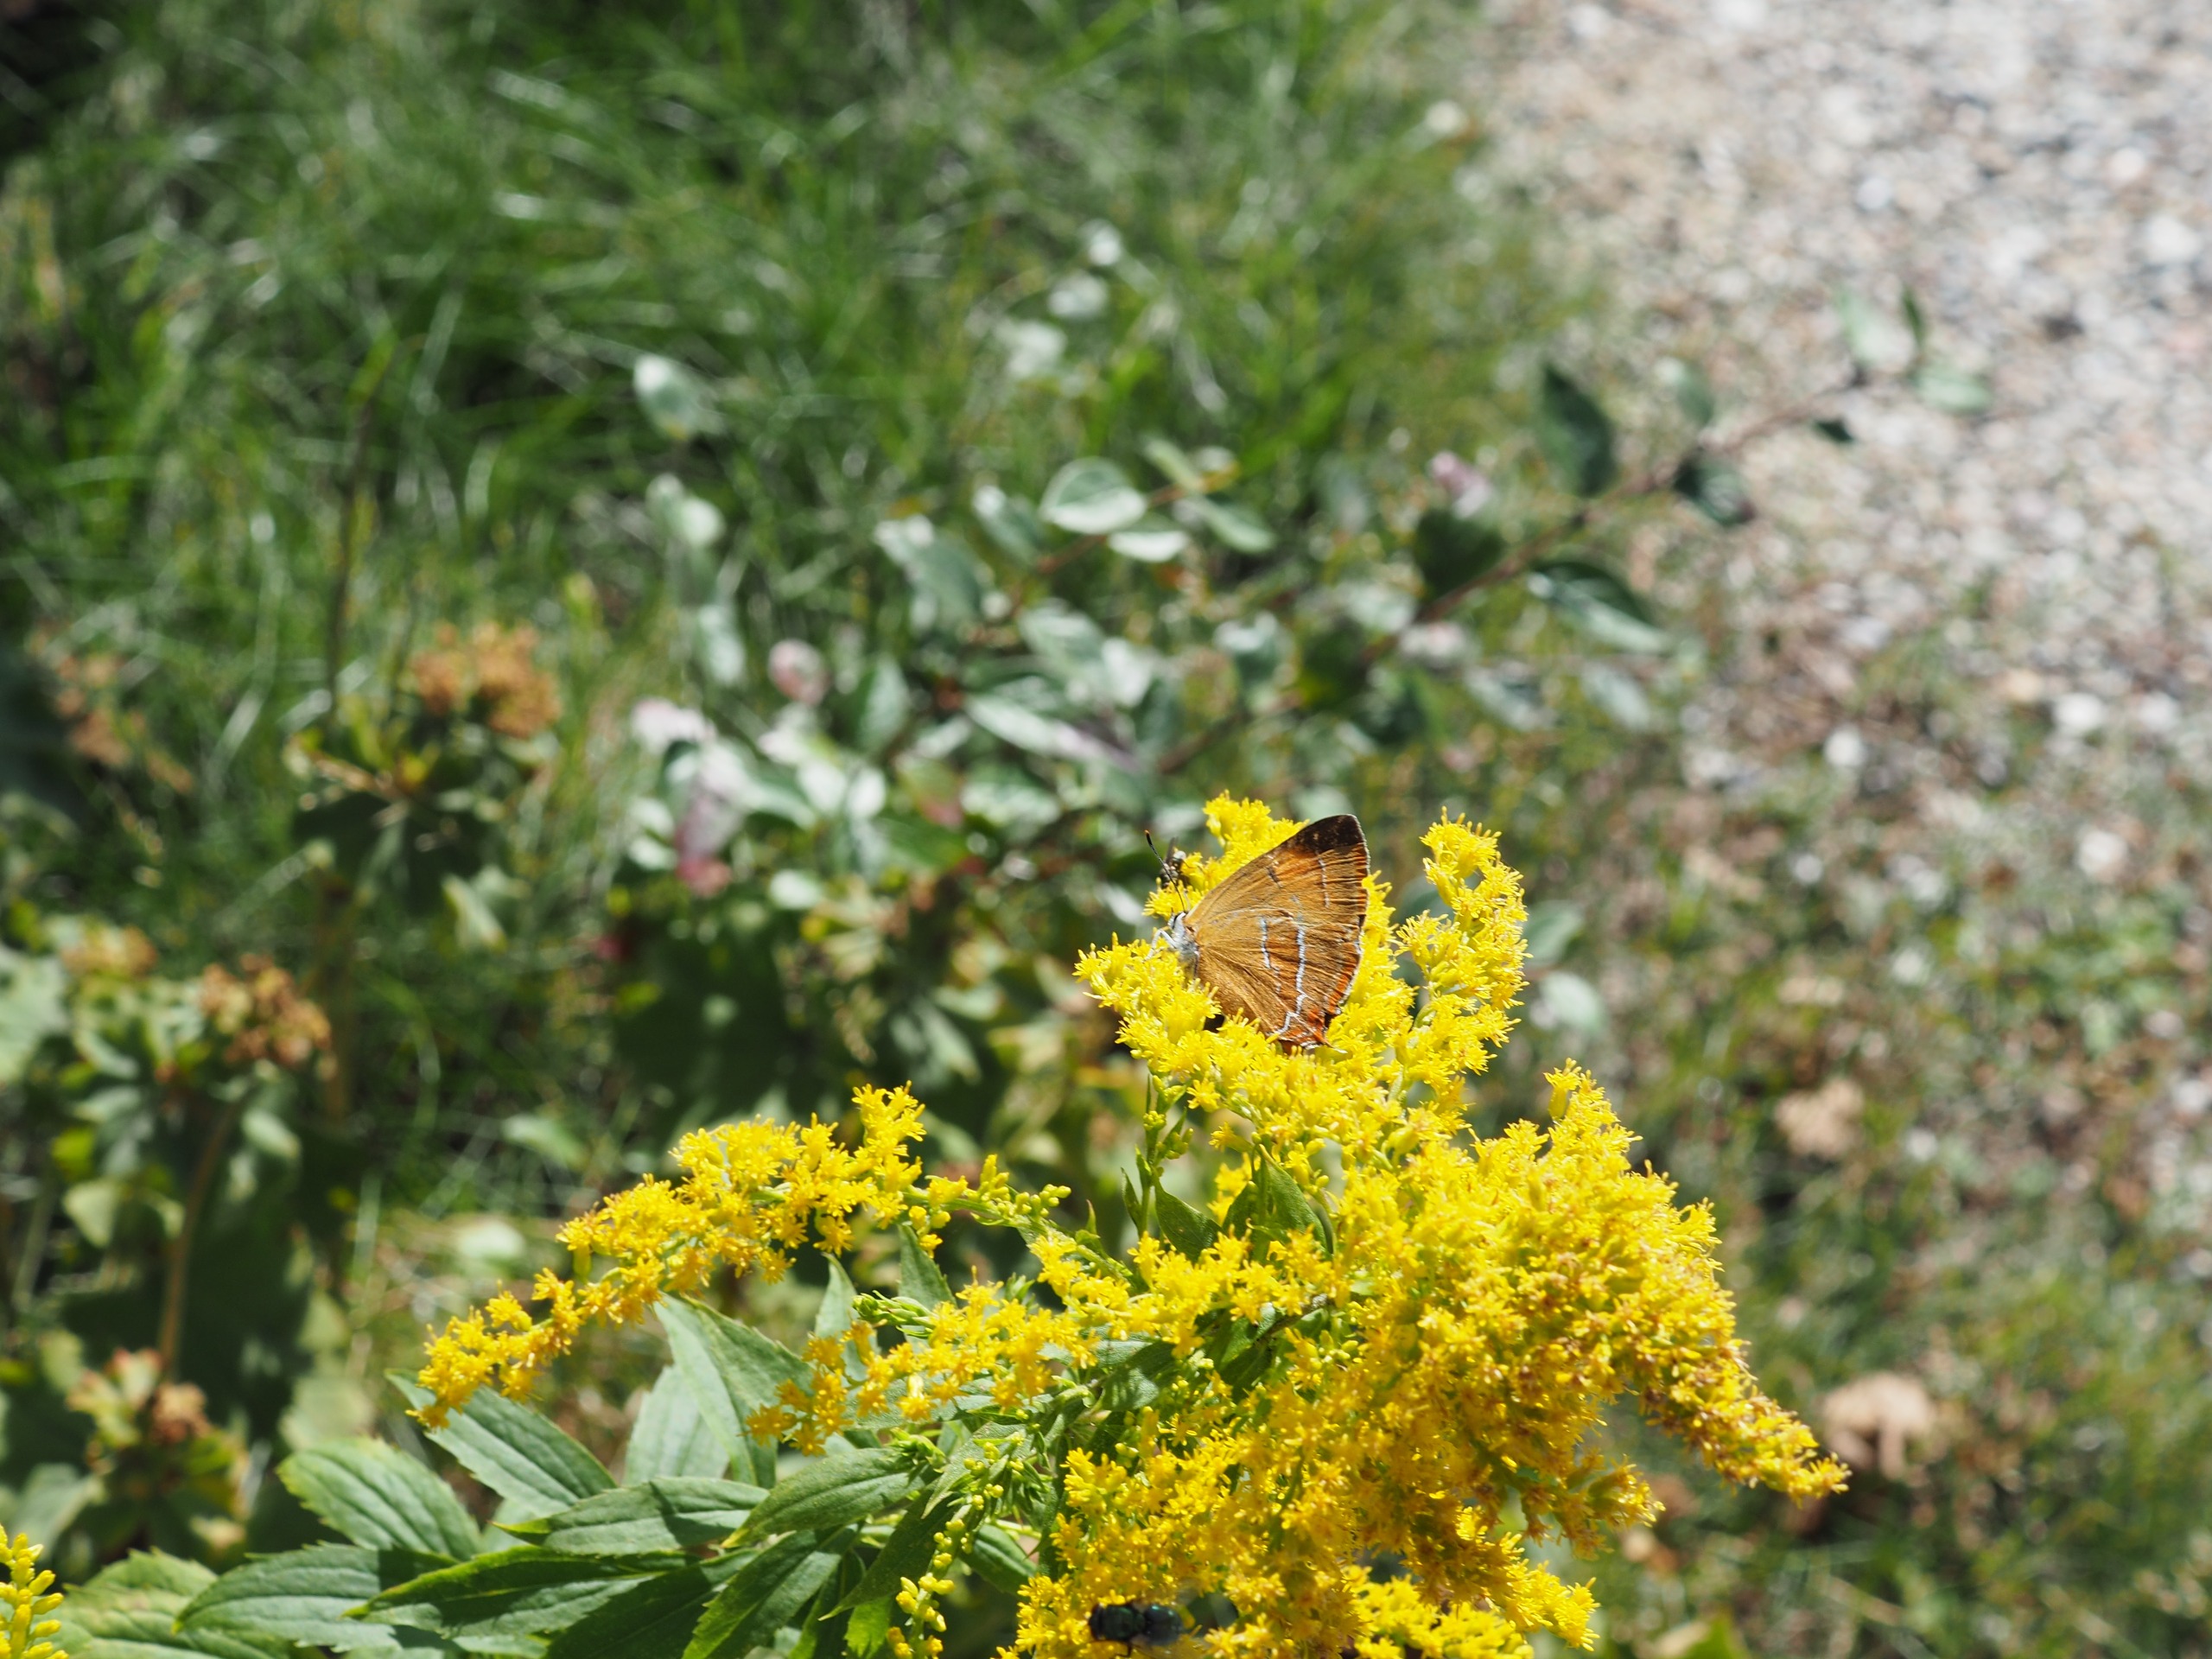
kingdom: Animalia
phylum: Arthropoda
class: Insecta
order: Lepidoptera
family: Lycaenidae
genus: Thecla
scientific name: Thecla betulae
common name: Guldhale
